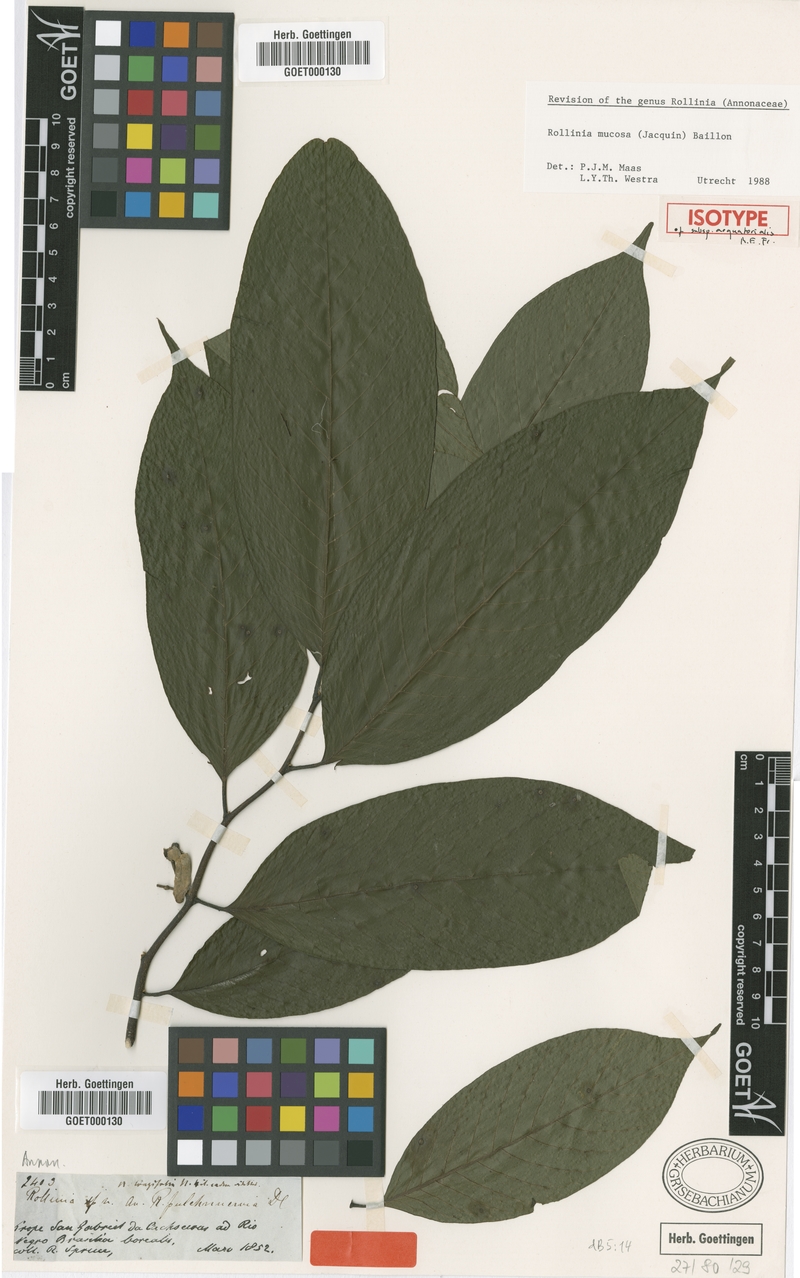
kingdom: Plantae
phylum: Tracheophyta
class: Magnoliopsida
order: Magnoliales
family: Annonaceae
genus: Annona
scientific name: Annona mucosa
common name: Sugar apple
